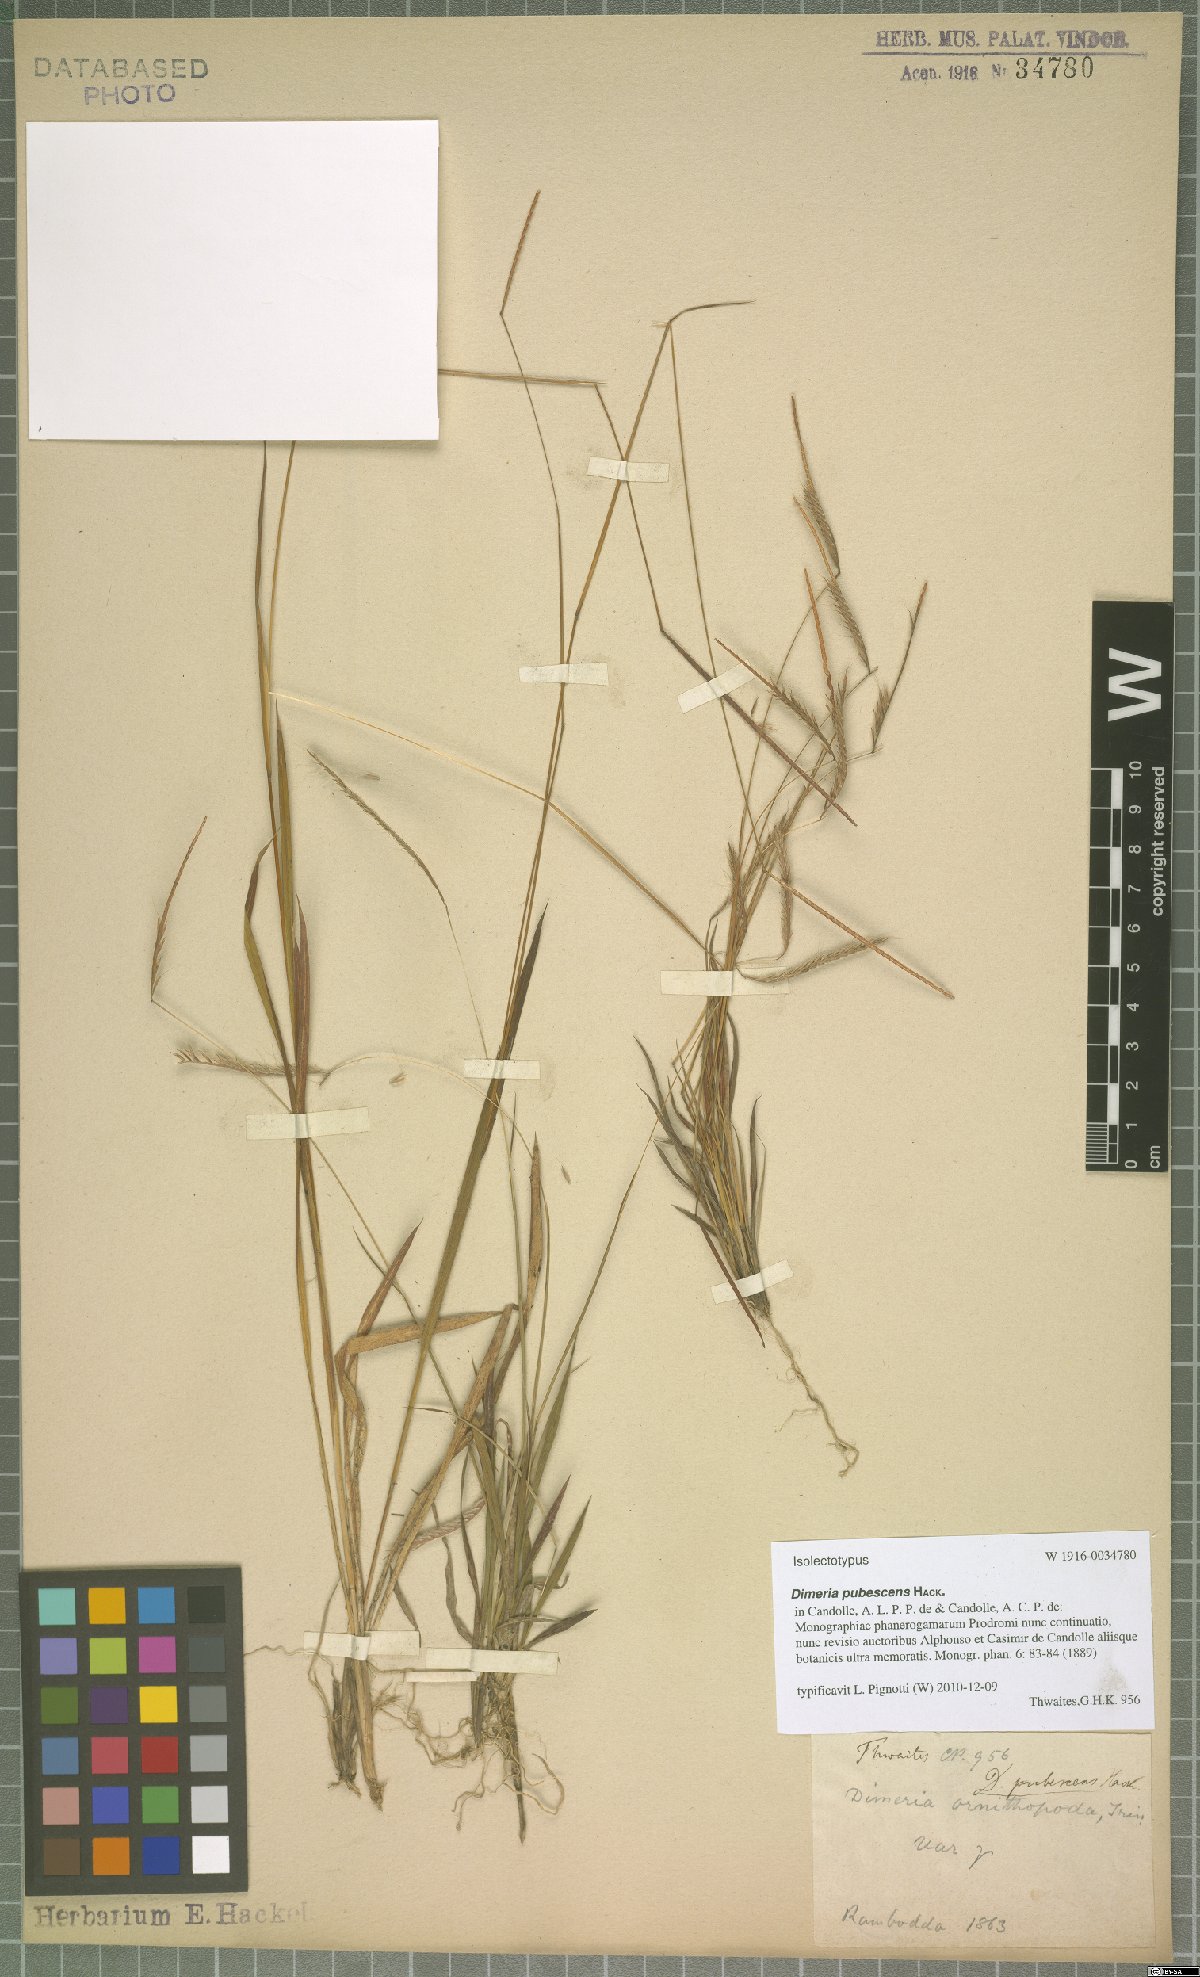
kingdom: Plantae
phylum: Tracheophyta
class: Liliopsida
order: Poales
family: Poaceae
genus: Dimeria
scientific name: Dimeria pubescens
